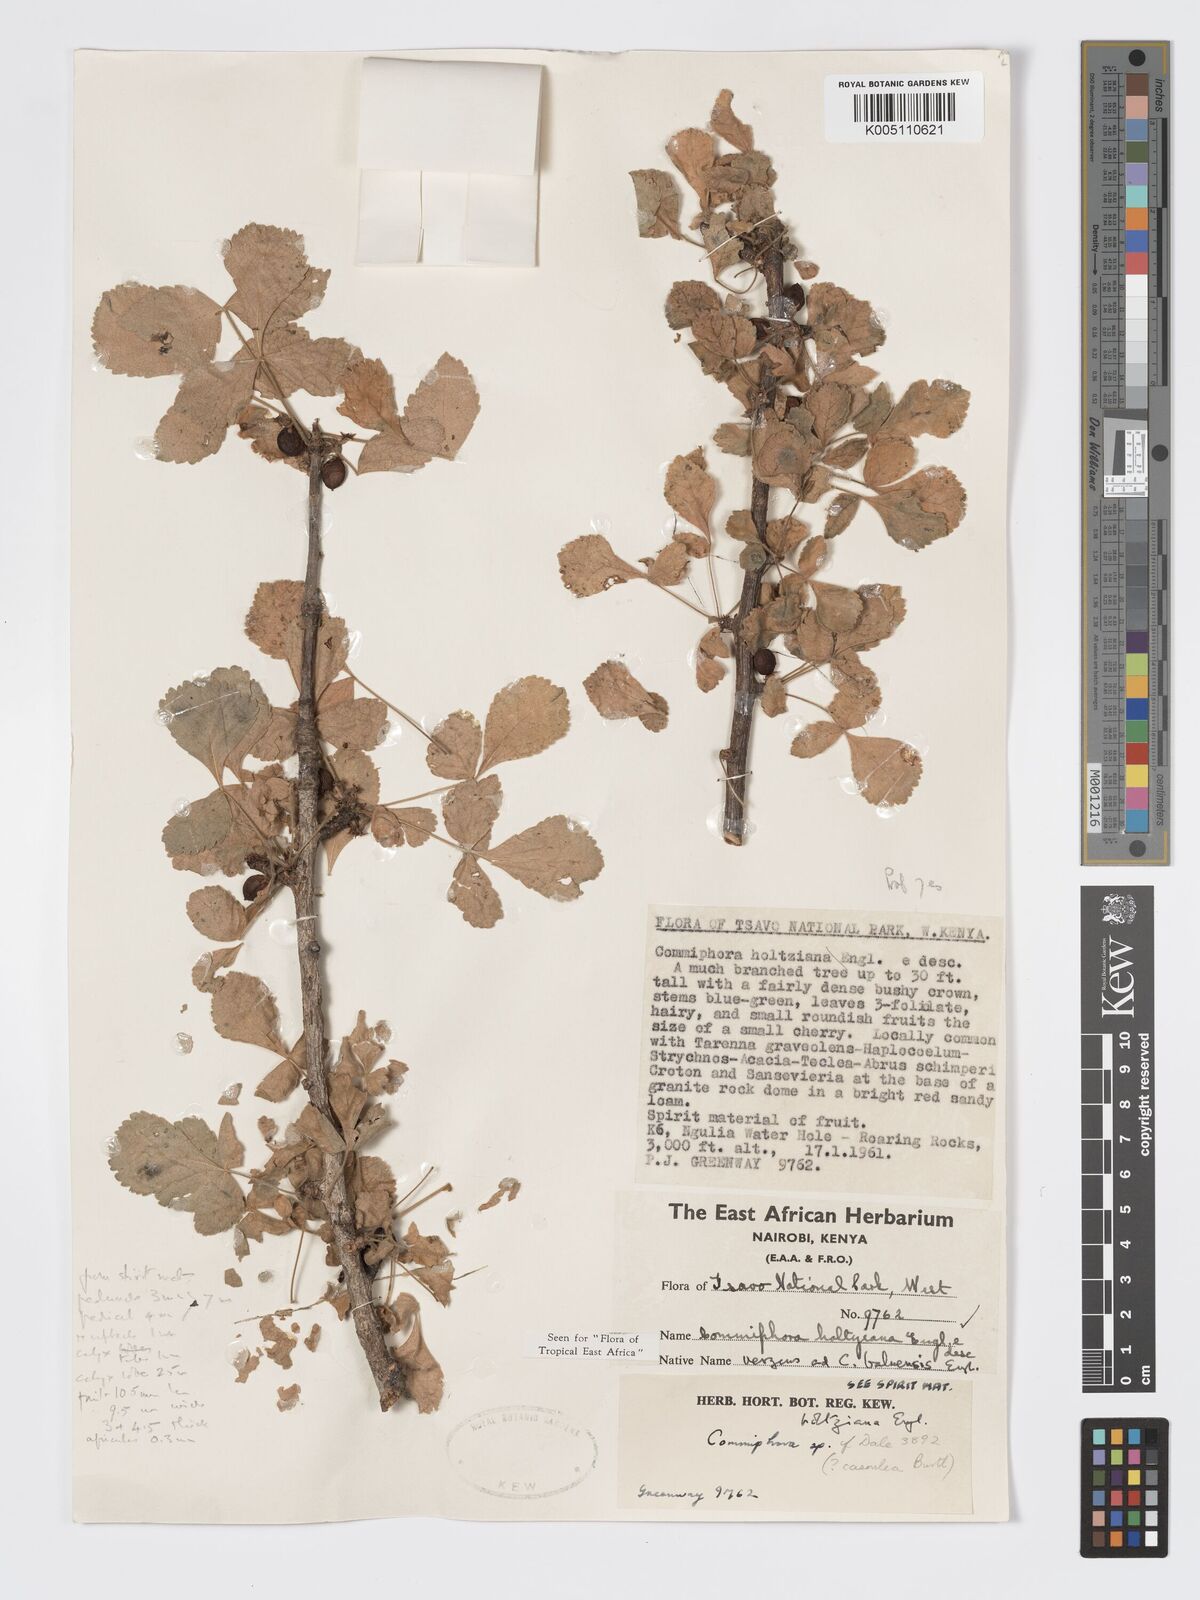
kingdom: Plantae
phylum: Tracheophyta
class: Magnoliopsida
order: Sapindales
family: Burseraceae
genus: Commiphora
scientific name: Commiphora kataf
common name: Bisabol myrrh
